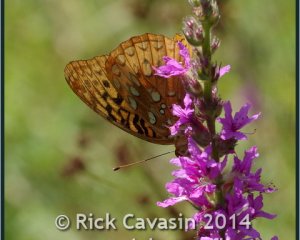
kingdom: Animalia
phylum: Arthropoda
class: Insecta
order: Lepidoptera
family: Nymphalidae
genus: Speyeria
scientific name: Speyeria cybele
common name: Great Spangled Fritillary
